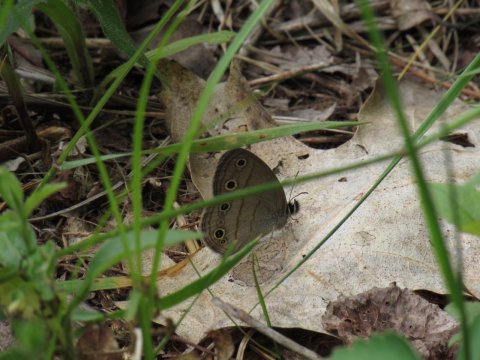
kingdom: Animalia
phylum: Arthropoda
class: Insecta
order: Lepidoptera
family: Nymphalidae
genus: Euptychia
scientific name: Euptychia cymela
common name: Little Wood Satyr
